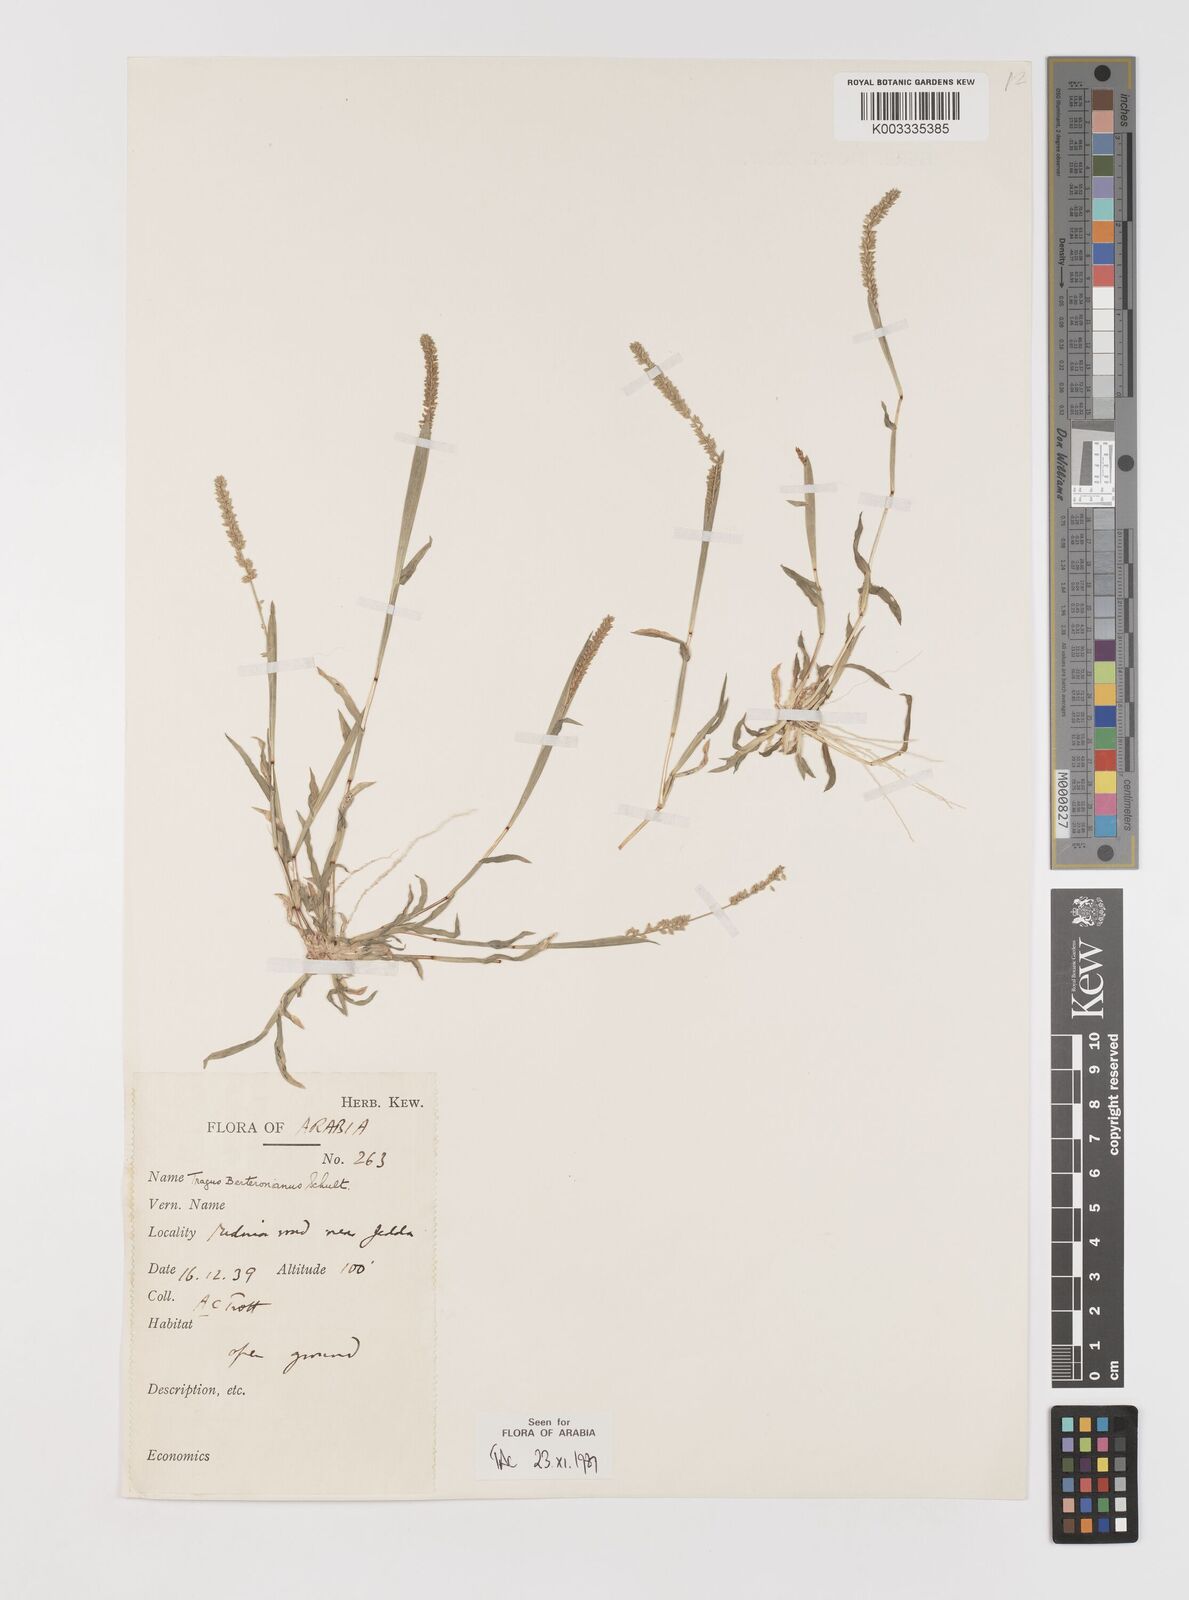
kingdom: Plantae
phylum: Tracheophyta
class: Liliopsida
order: Poales
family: Poaceae
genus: Tragus
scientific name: Tragus berteronianus
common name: African bur-grass
